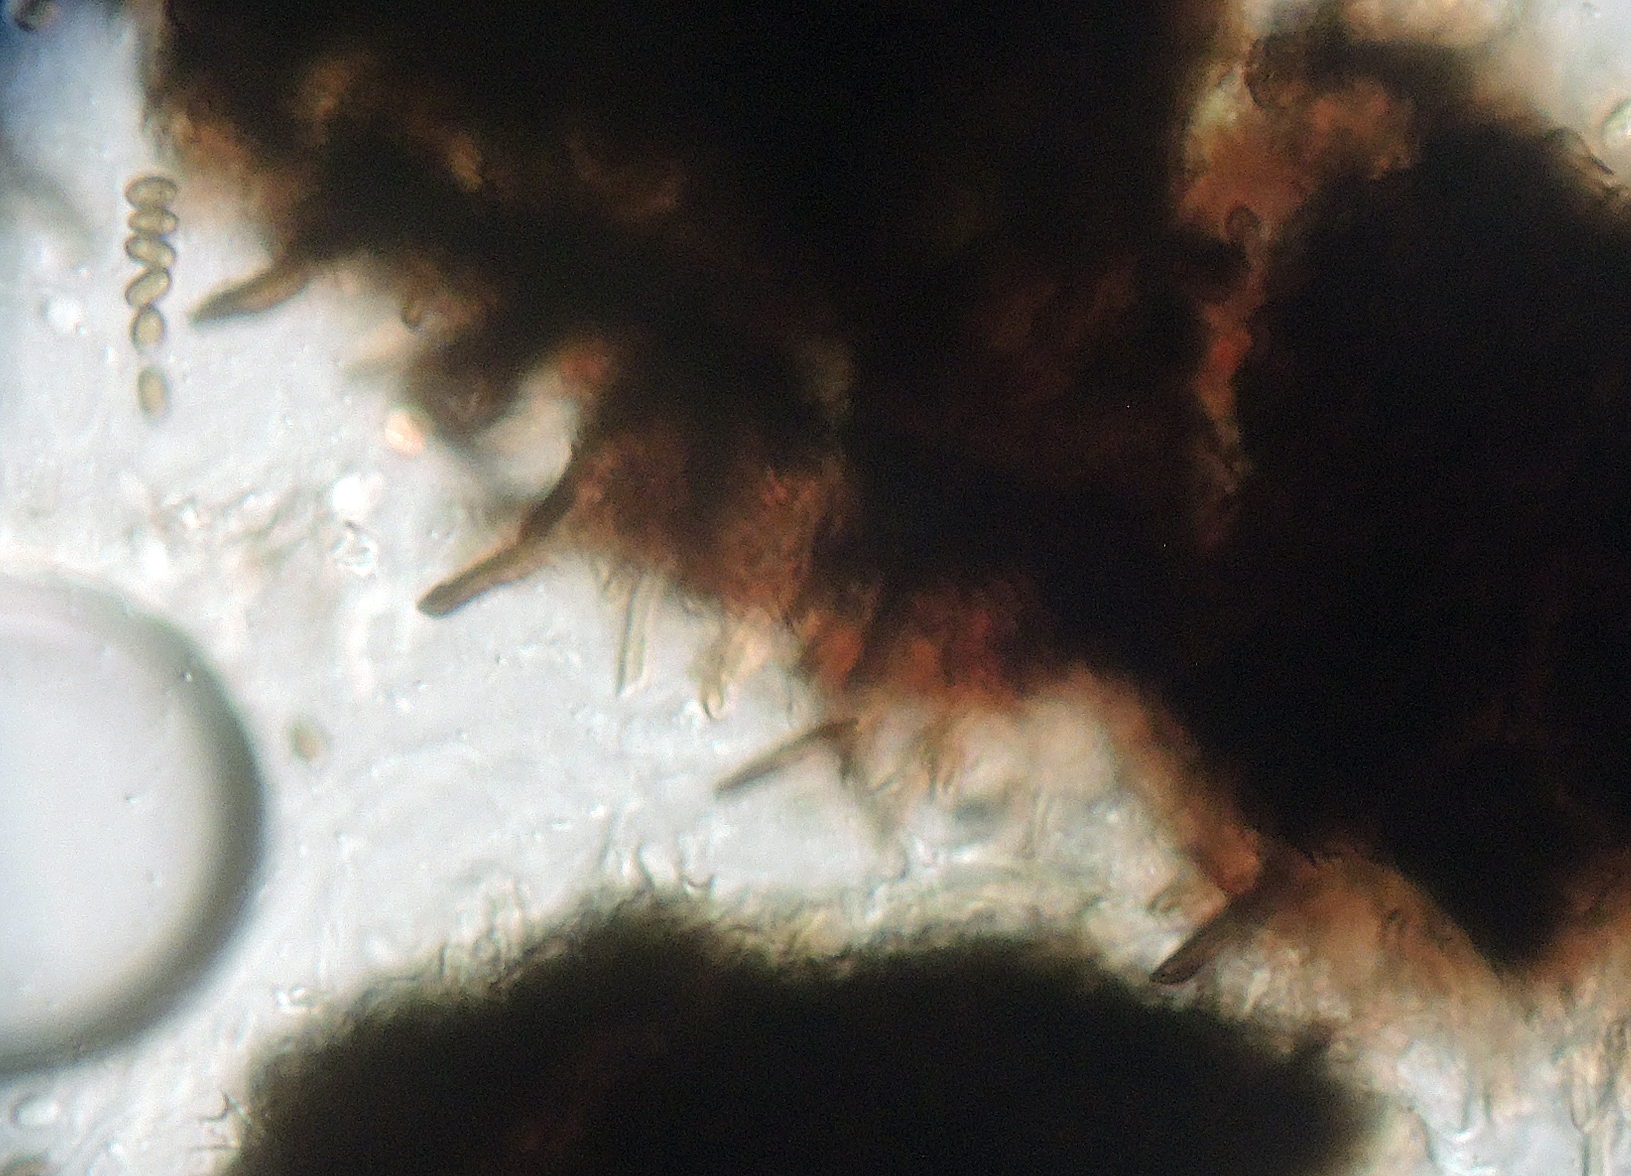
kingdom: Fungi
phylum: Ascomycota
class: Sordariomycetes
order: Coniochaetales
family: Coniochaetaceae
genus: Coniochaeta
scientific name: Coniochaeta kellermanii
